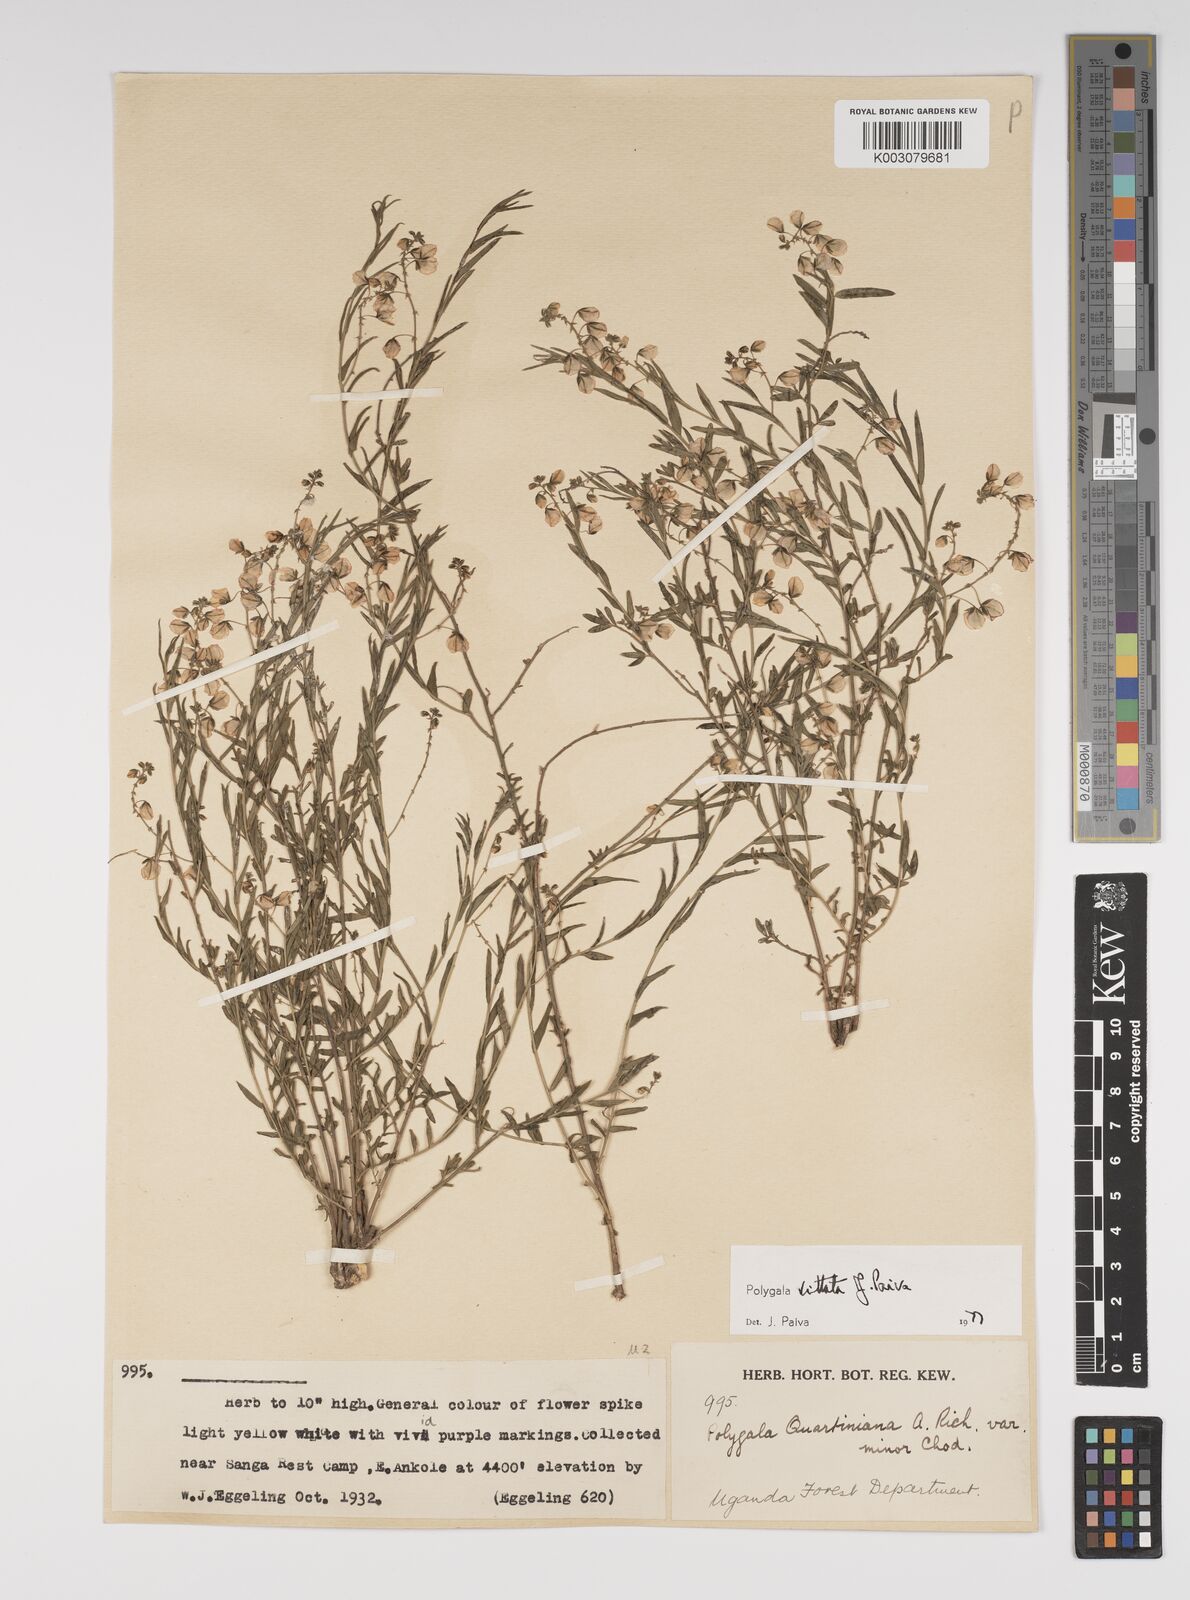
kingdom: Plantae
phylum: Tracheophyta
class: Magnoliopsida
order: Fabales
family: Polygalaceae
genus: Polygala
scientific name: Polygala vittata
